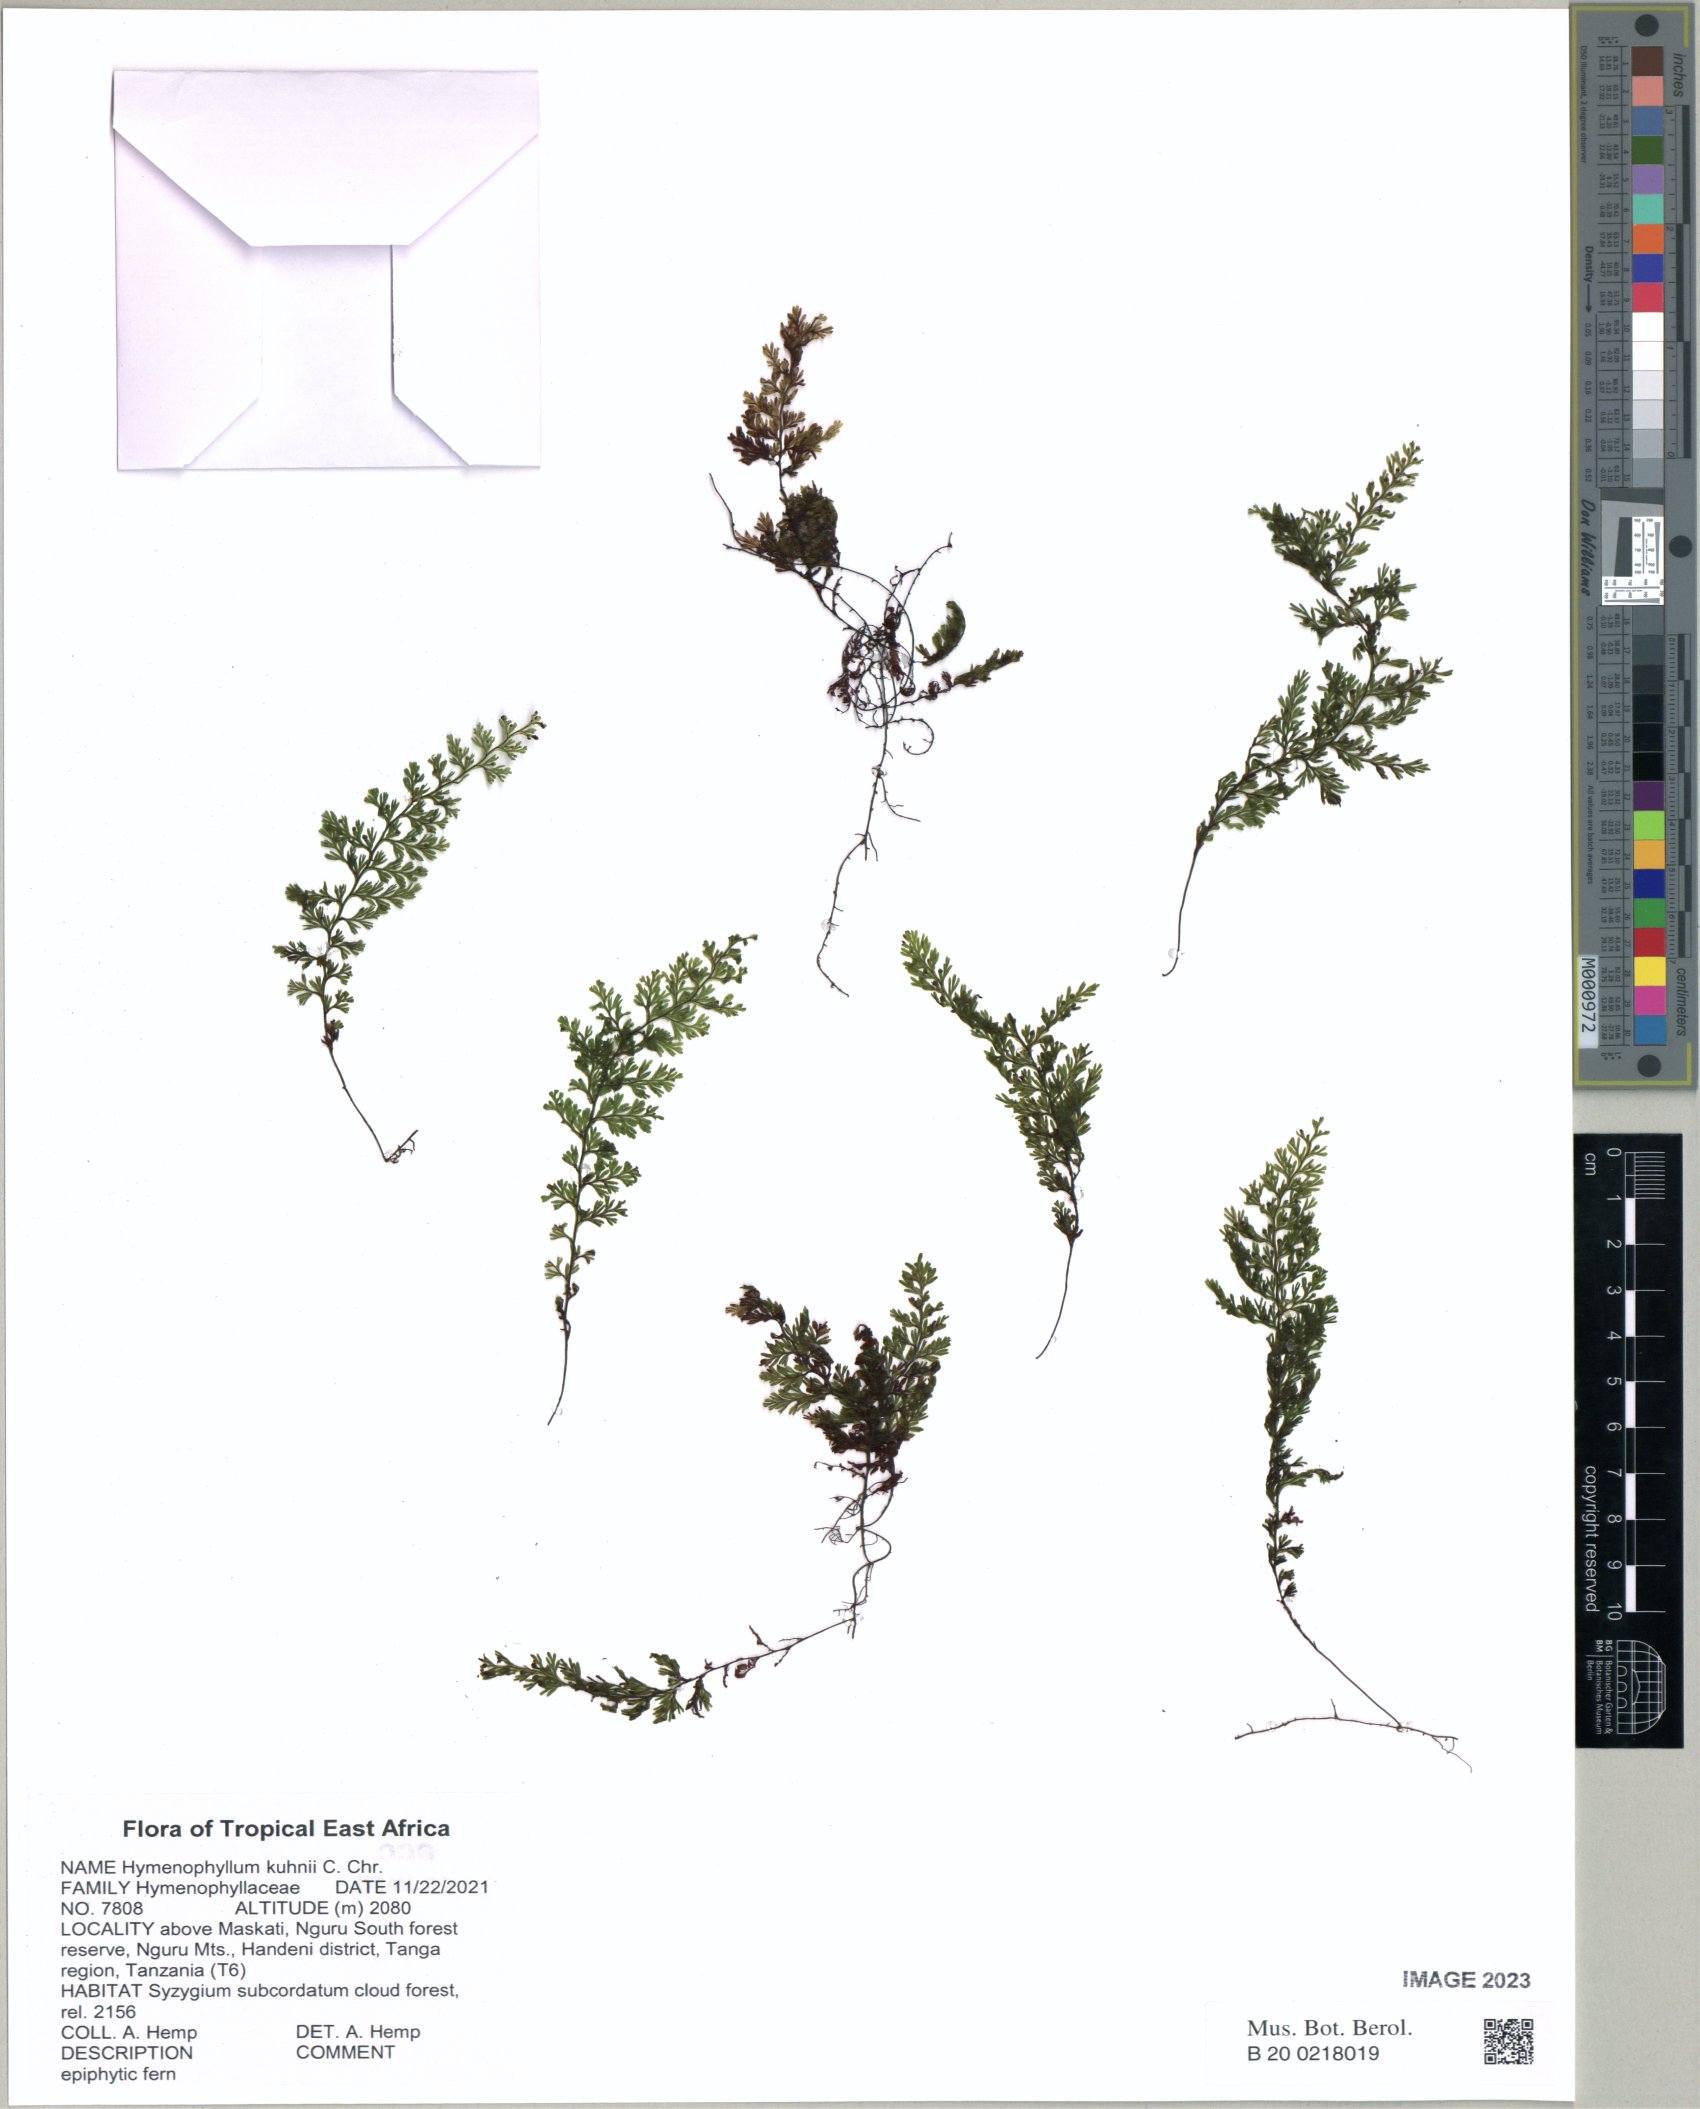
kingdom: Plantae
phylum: Tracheophyta
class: Polypodiopsida
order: Hymenophyllales
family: Hymenophyllaceae
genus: Hymenophyllum
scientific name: Hymenophyllum kuhnii
